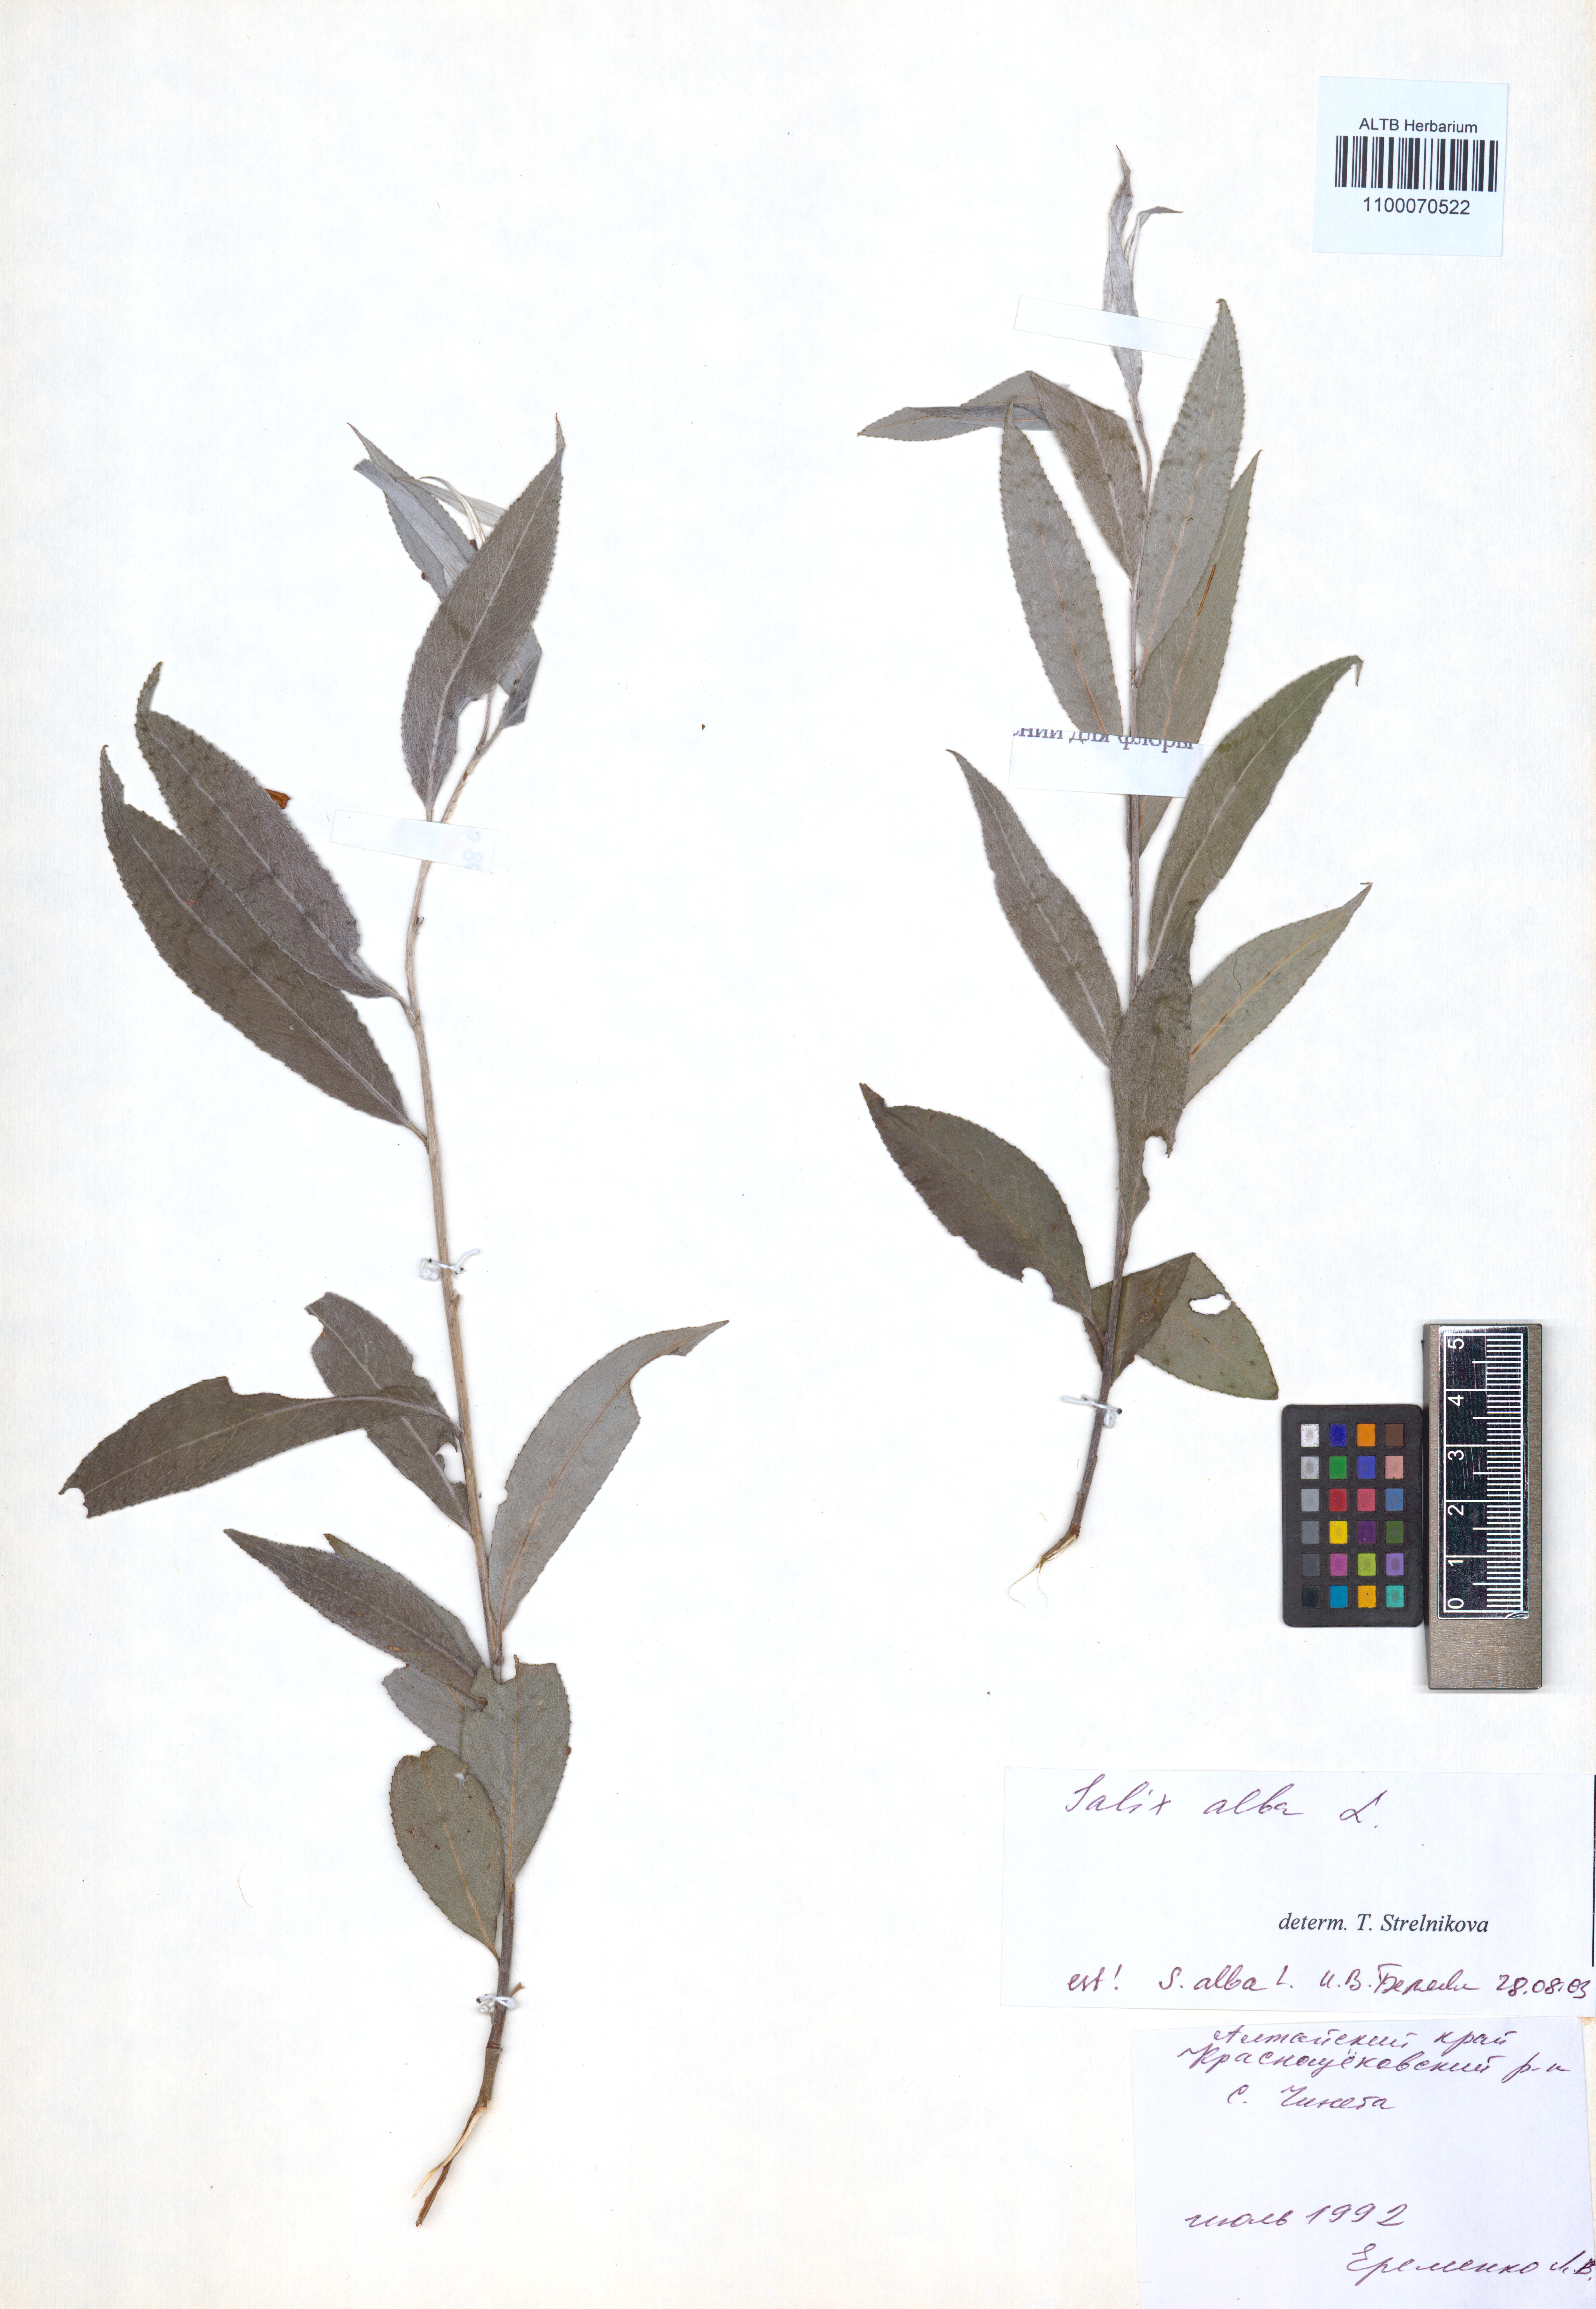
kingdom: Plantae
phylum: Tracheophyta
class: Magnoliopsida
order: Malpighiales
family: Salicaceae
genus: Salix
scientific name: Salix alba
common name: White willow
